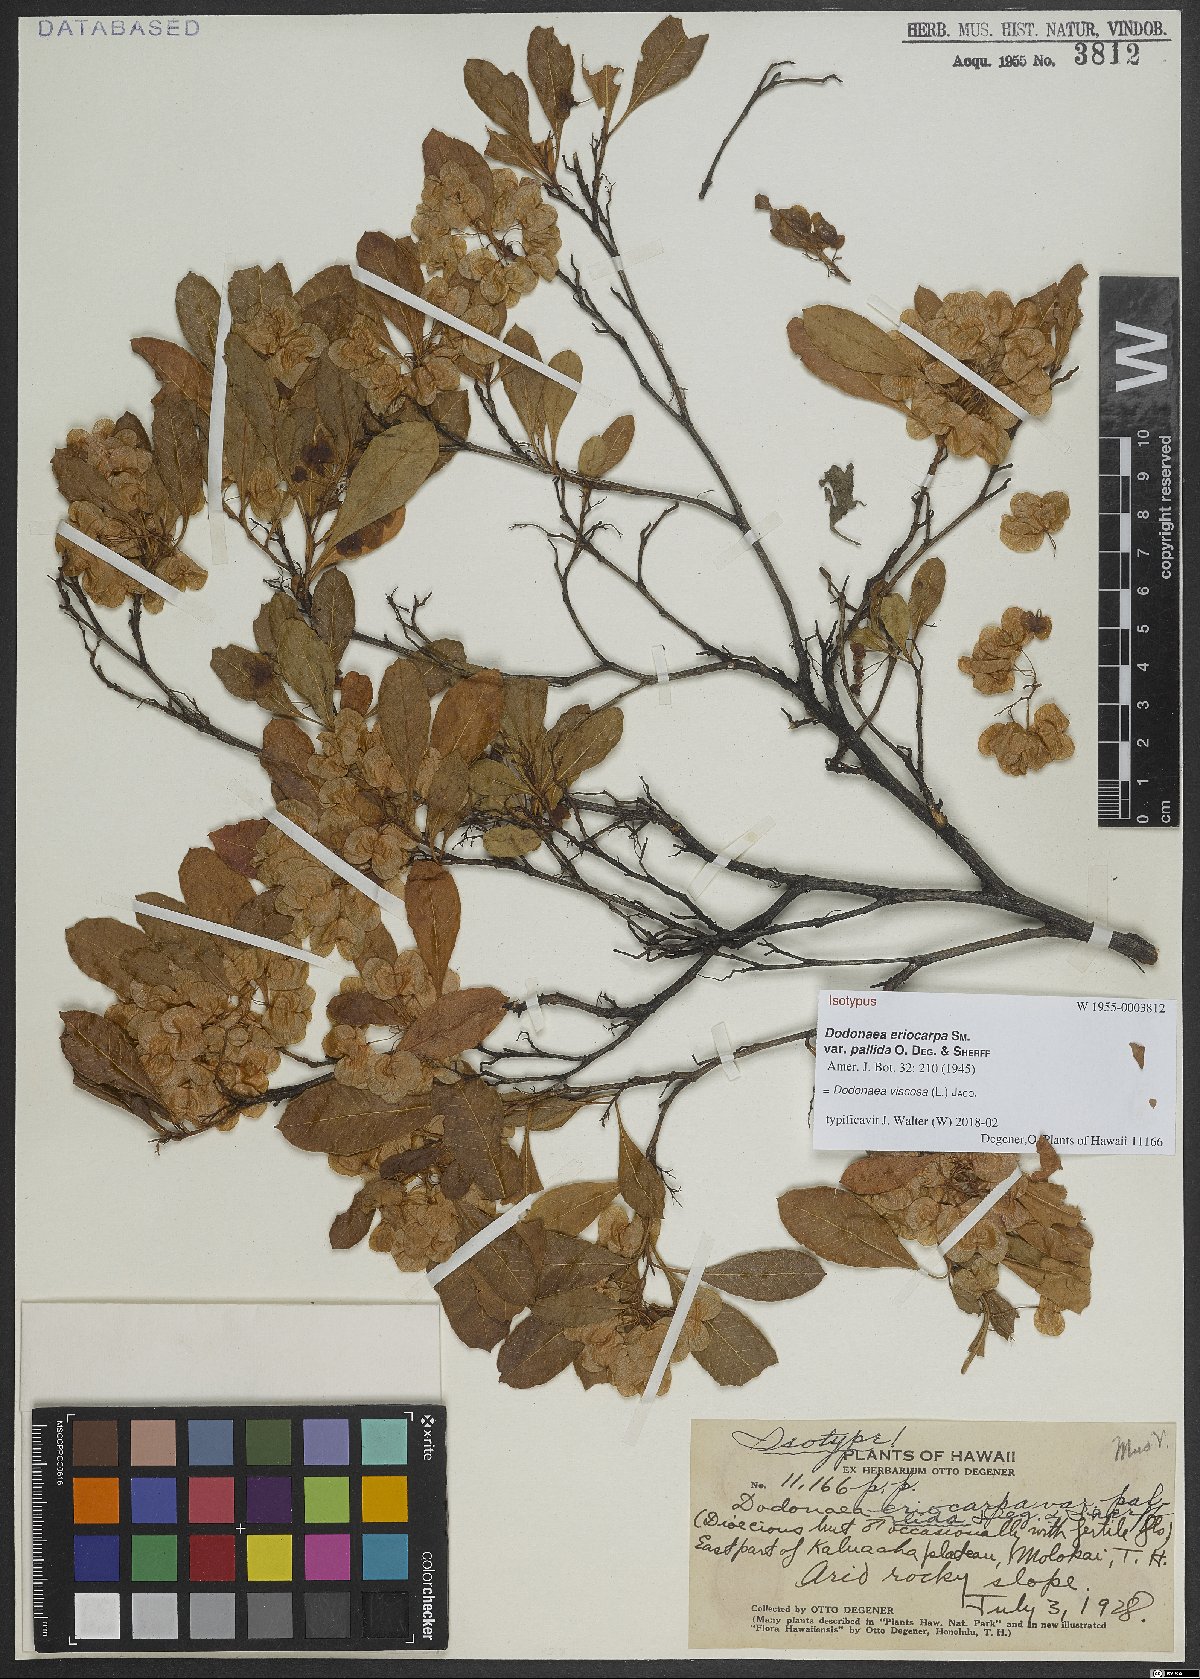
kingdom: Plantae
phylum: Tracheophyta
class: Magnoliopsida
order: Sapindales
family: Sapindaceae
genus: Dodonaea
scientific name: Dodonaea viscosa
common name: Hopbush
